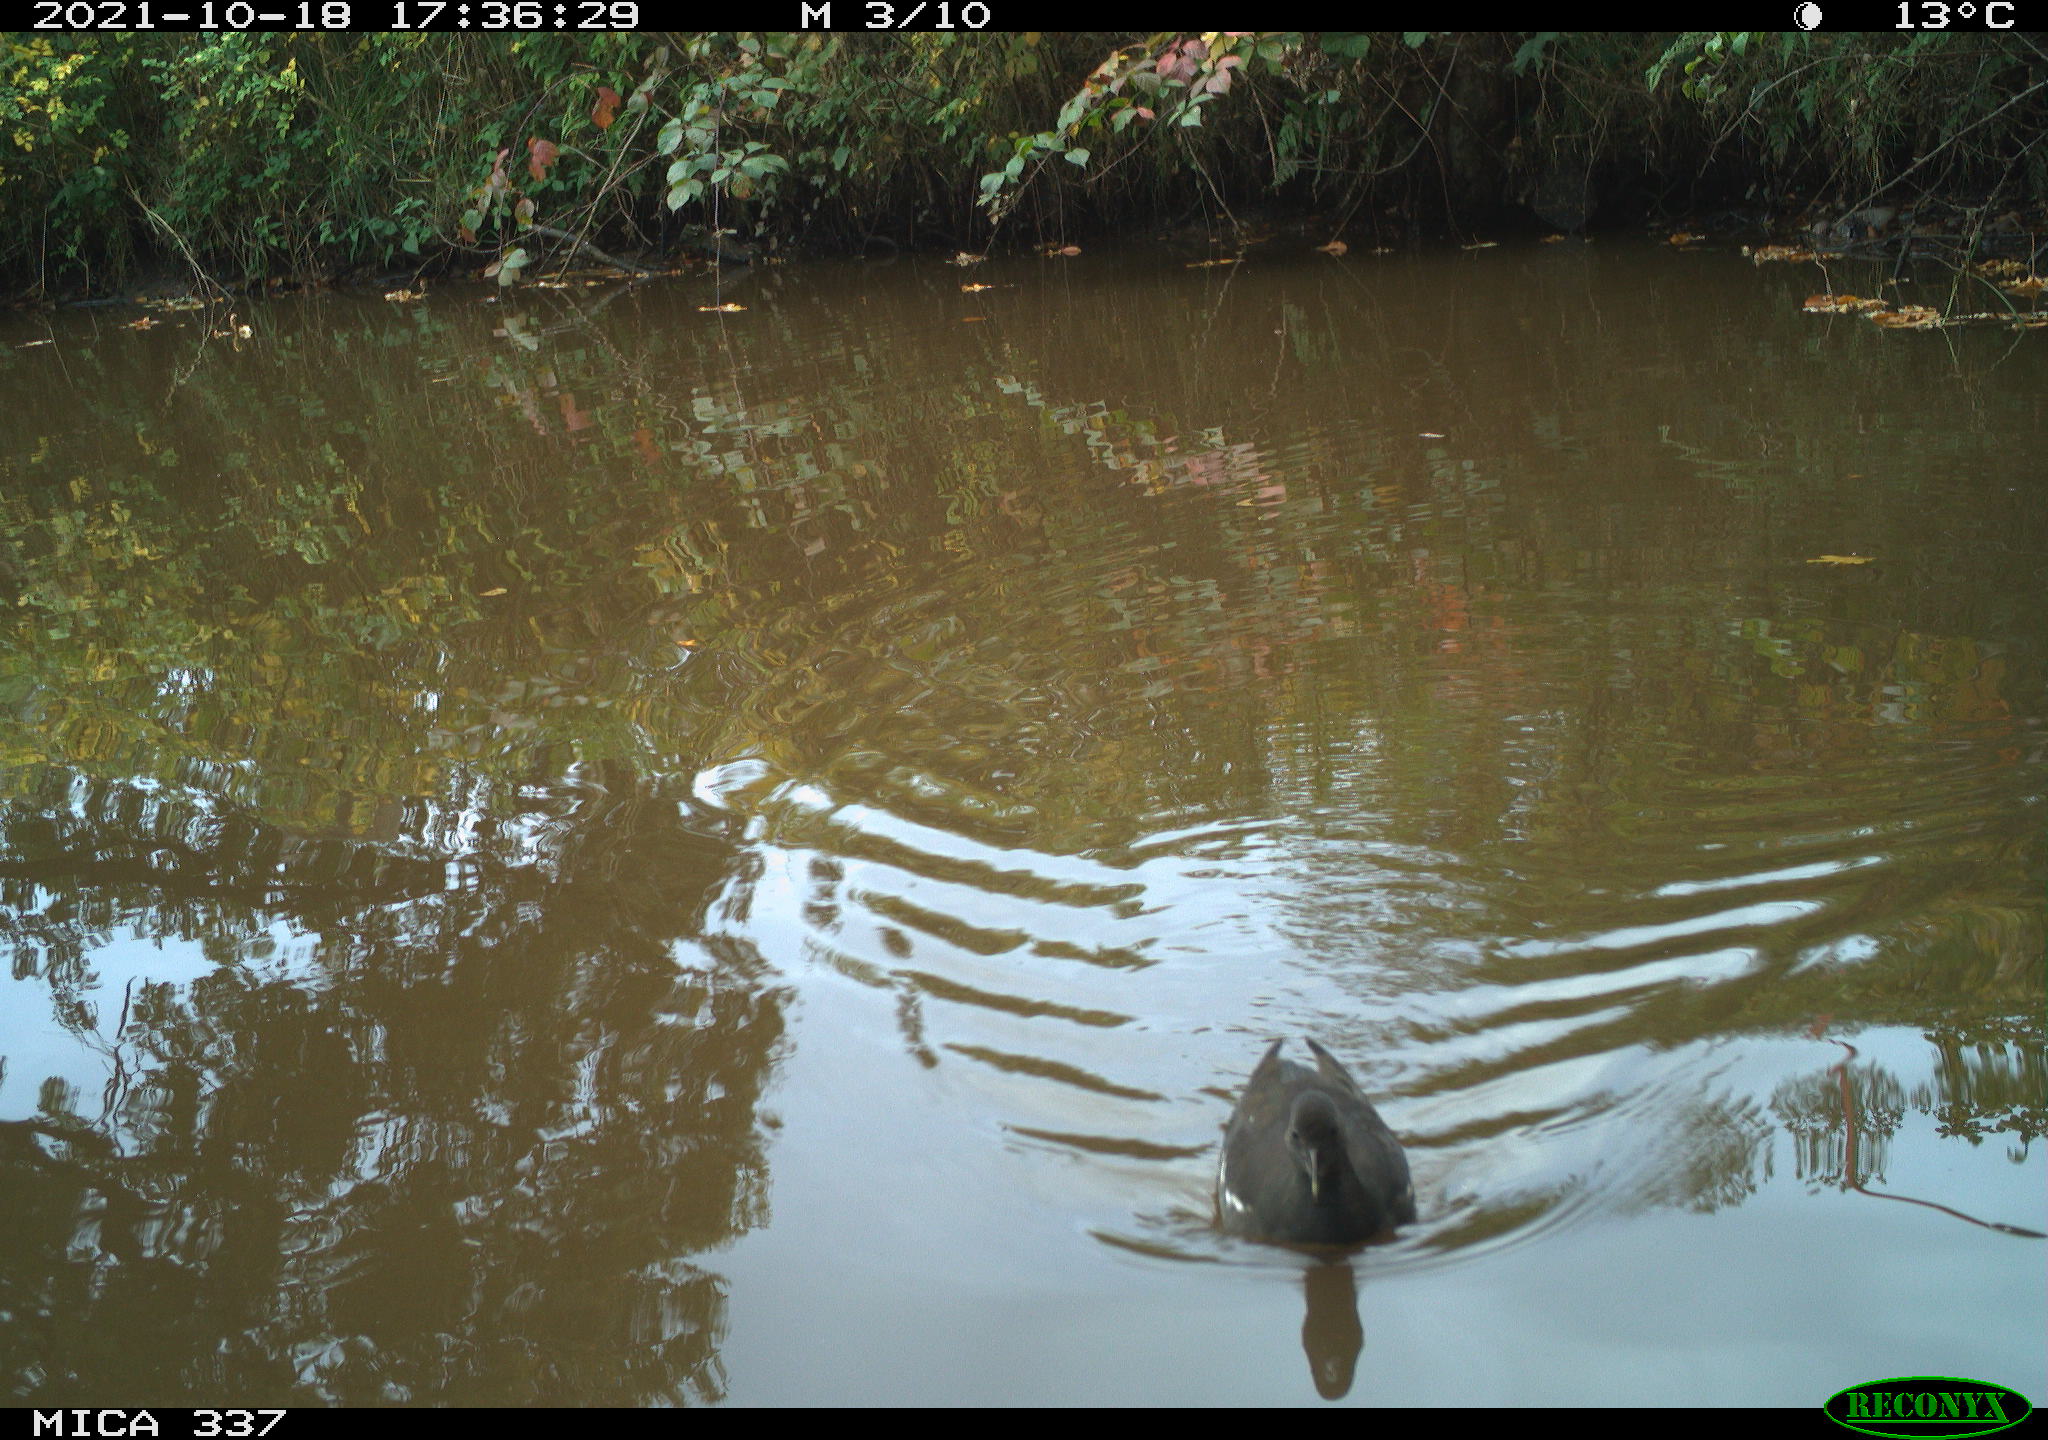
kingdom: Animalia
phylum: Chordata
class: Aves
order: Gruiformes
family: Rallidae
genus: Gallinula
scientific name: Gallinula chloropus
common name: Common moorhen
